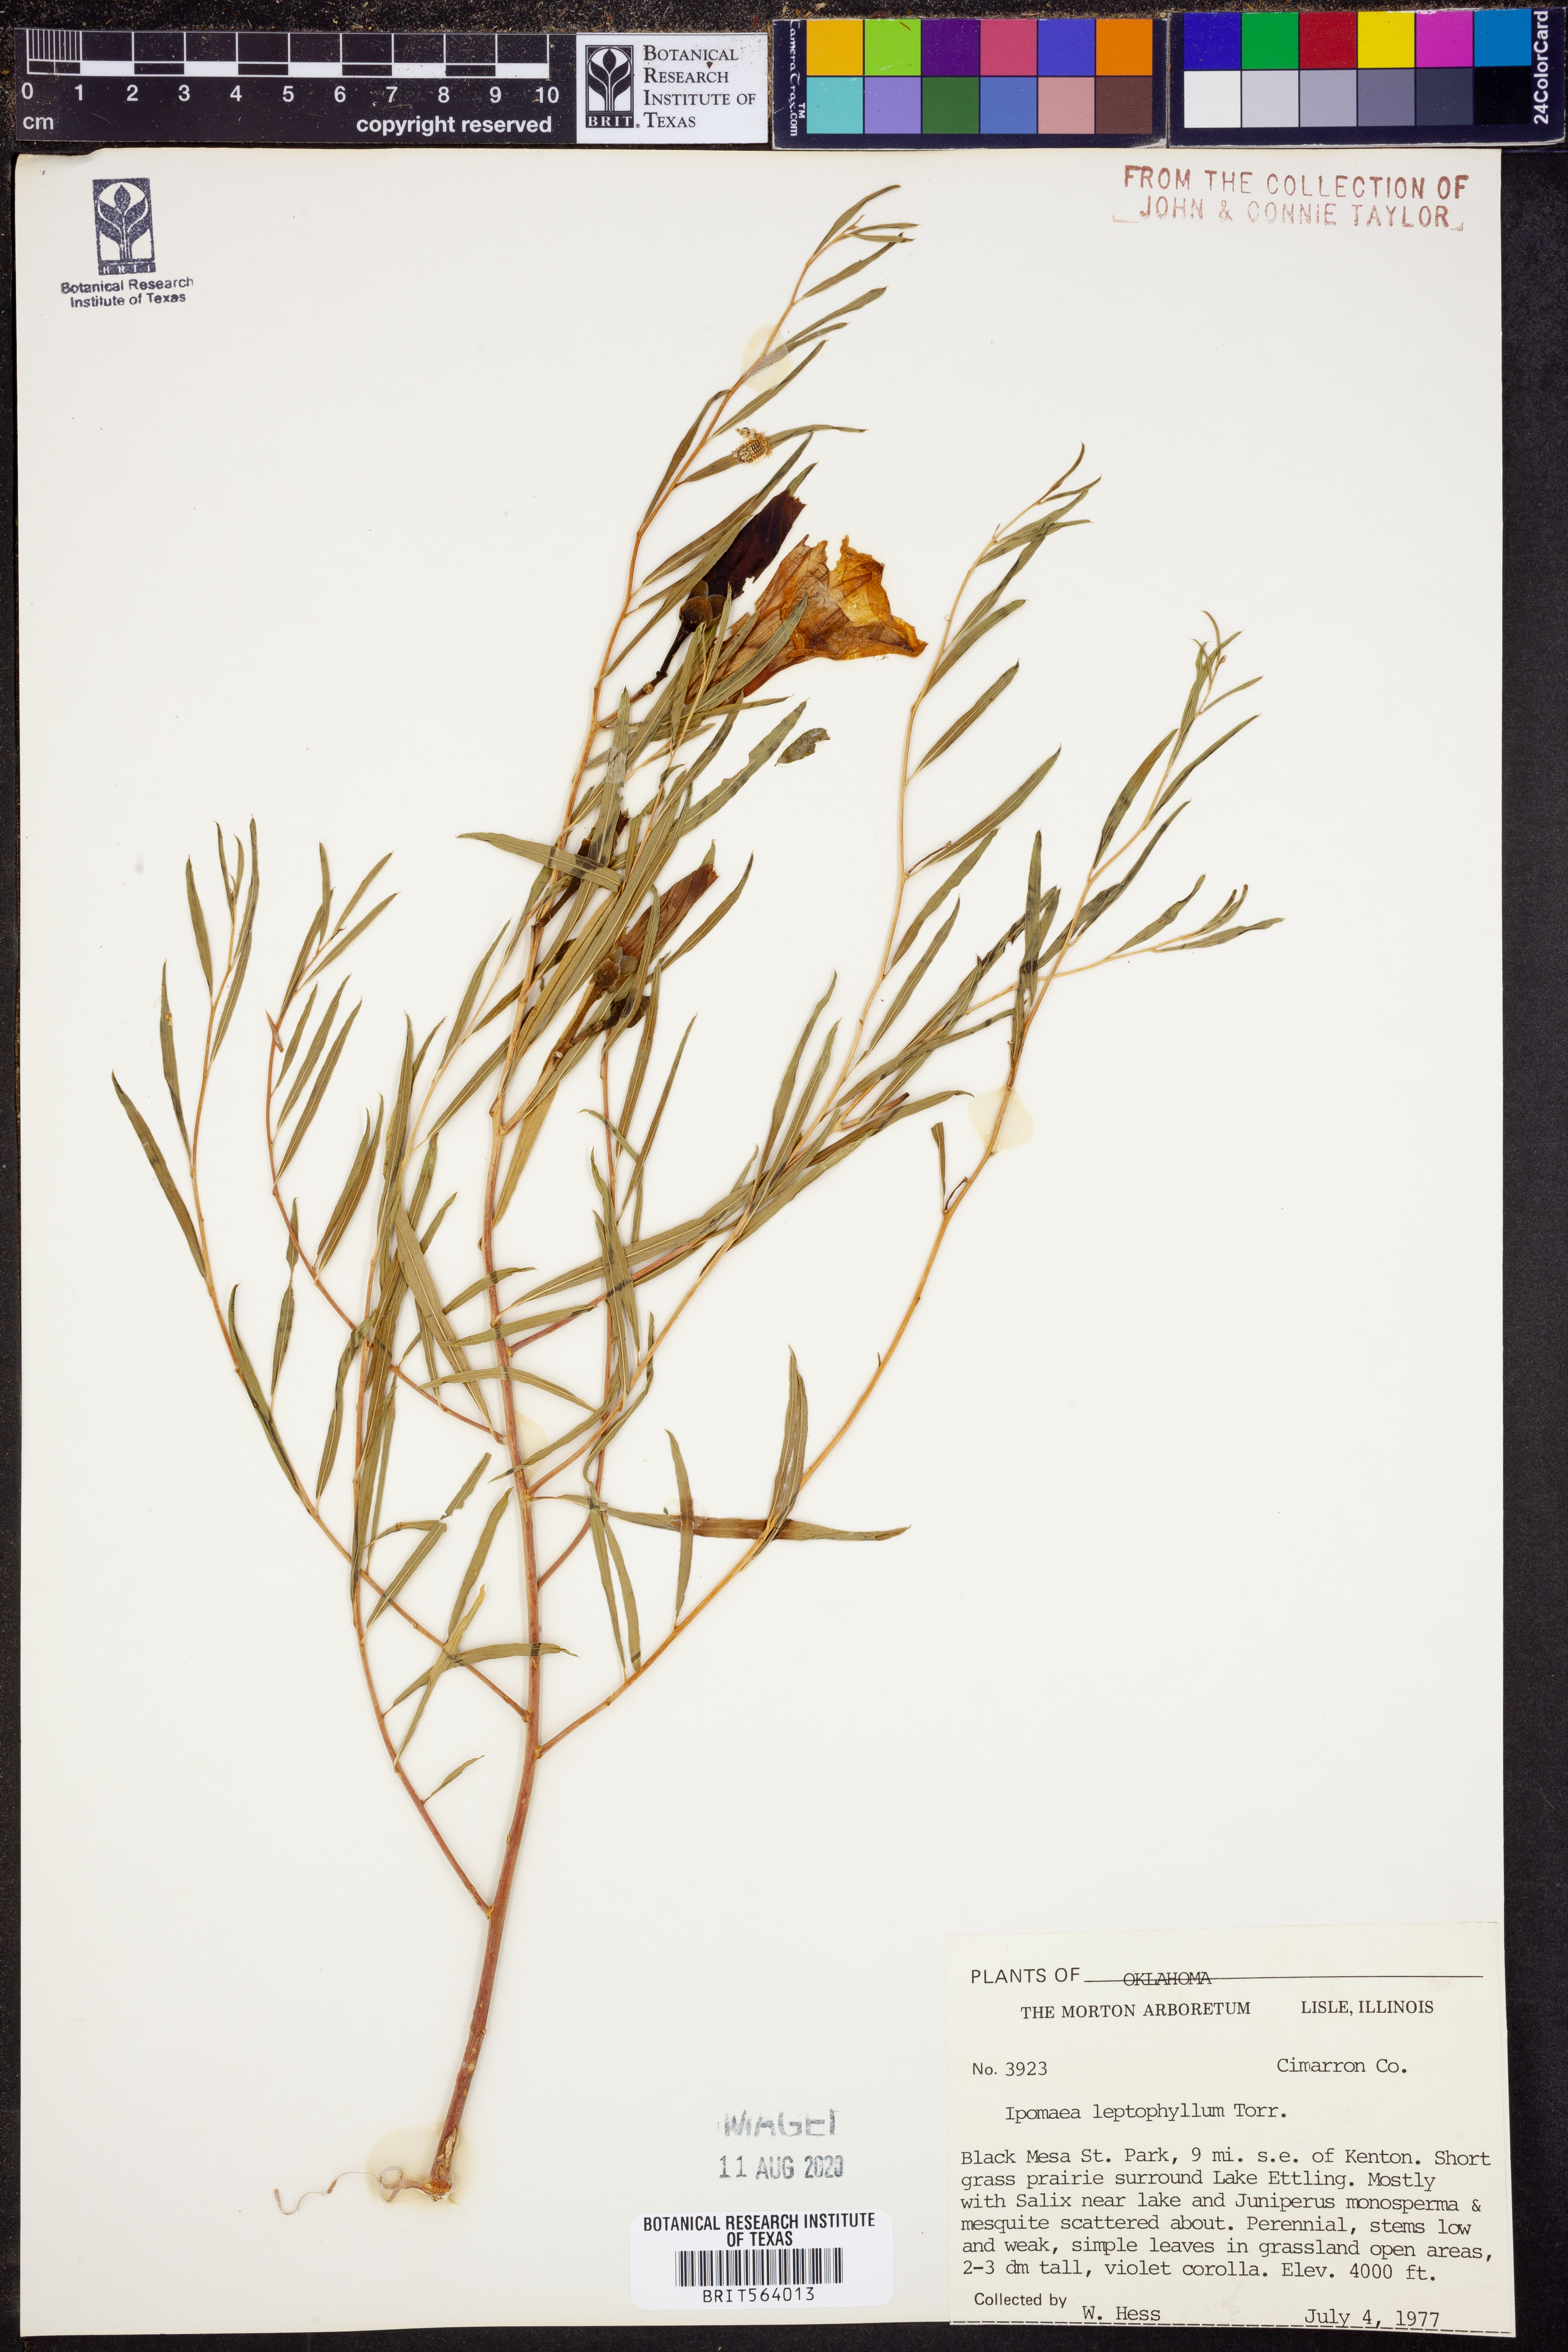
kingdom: Plantae
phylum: Tracheophyta
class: Magnoliopsida
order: Solanales
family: Convolvulaceae
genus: Ipomoea
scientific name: Ipomoea leptophylla
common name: Bush moonflower
